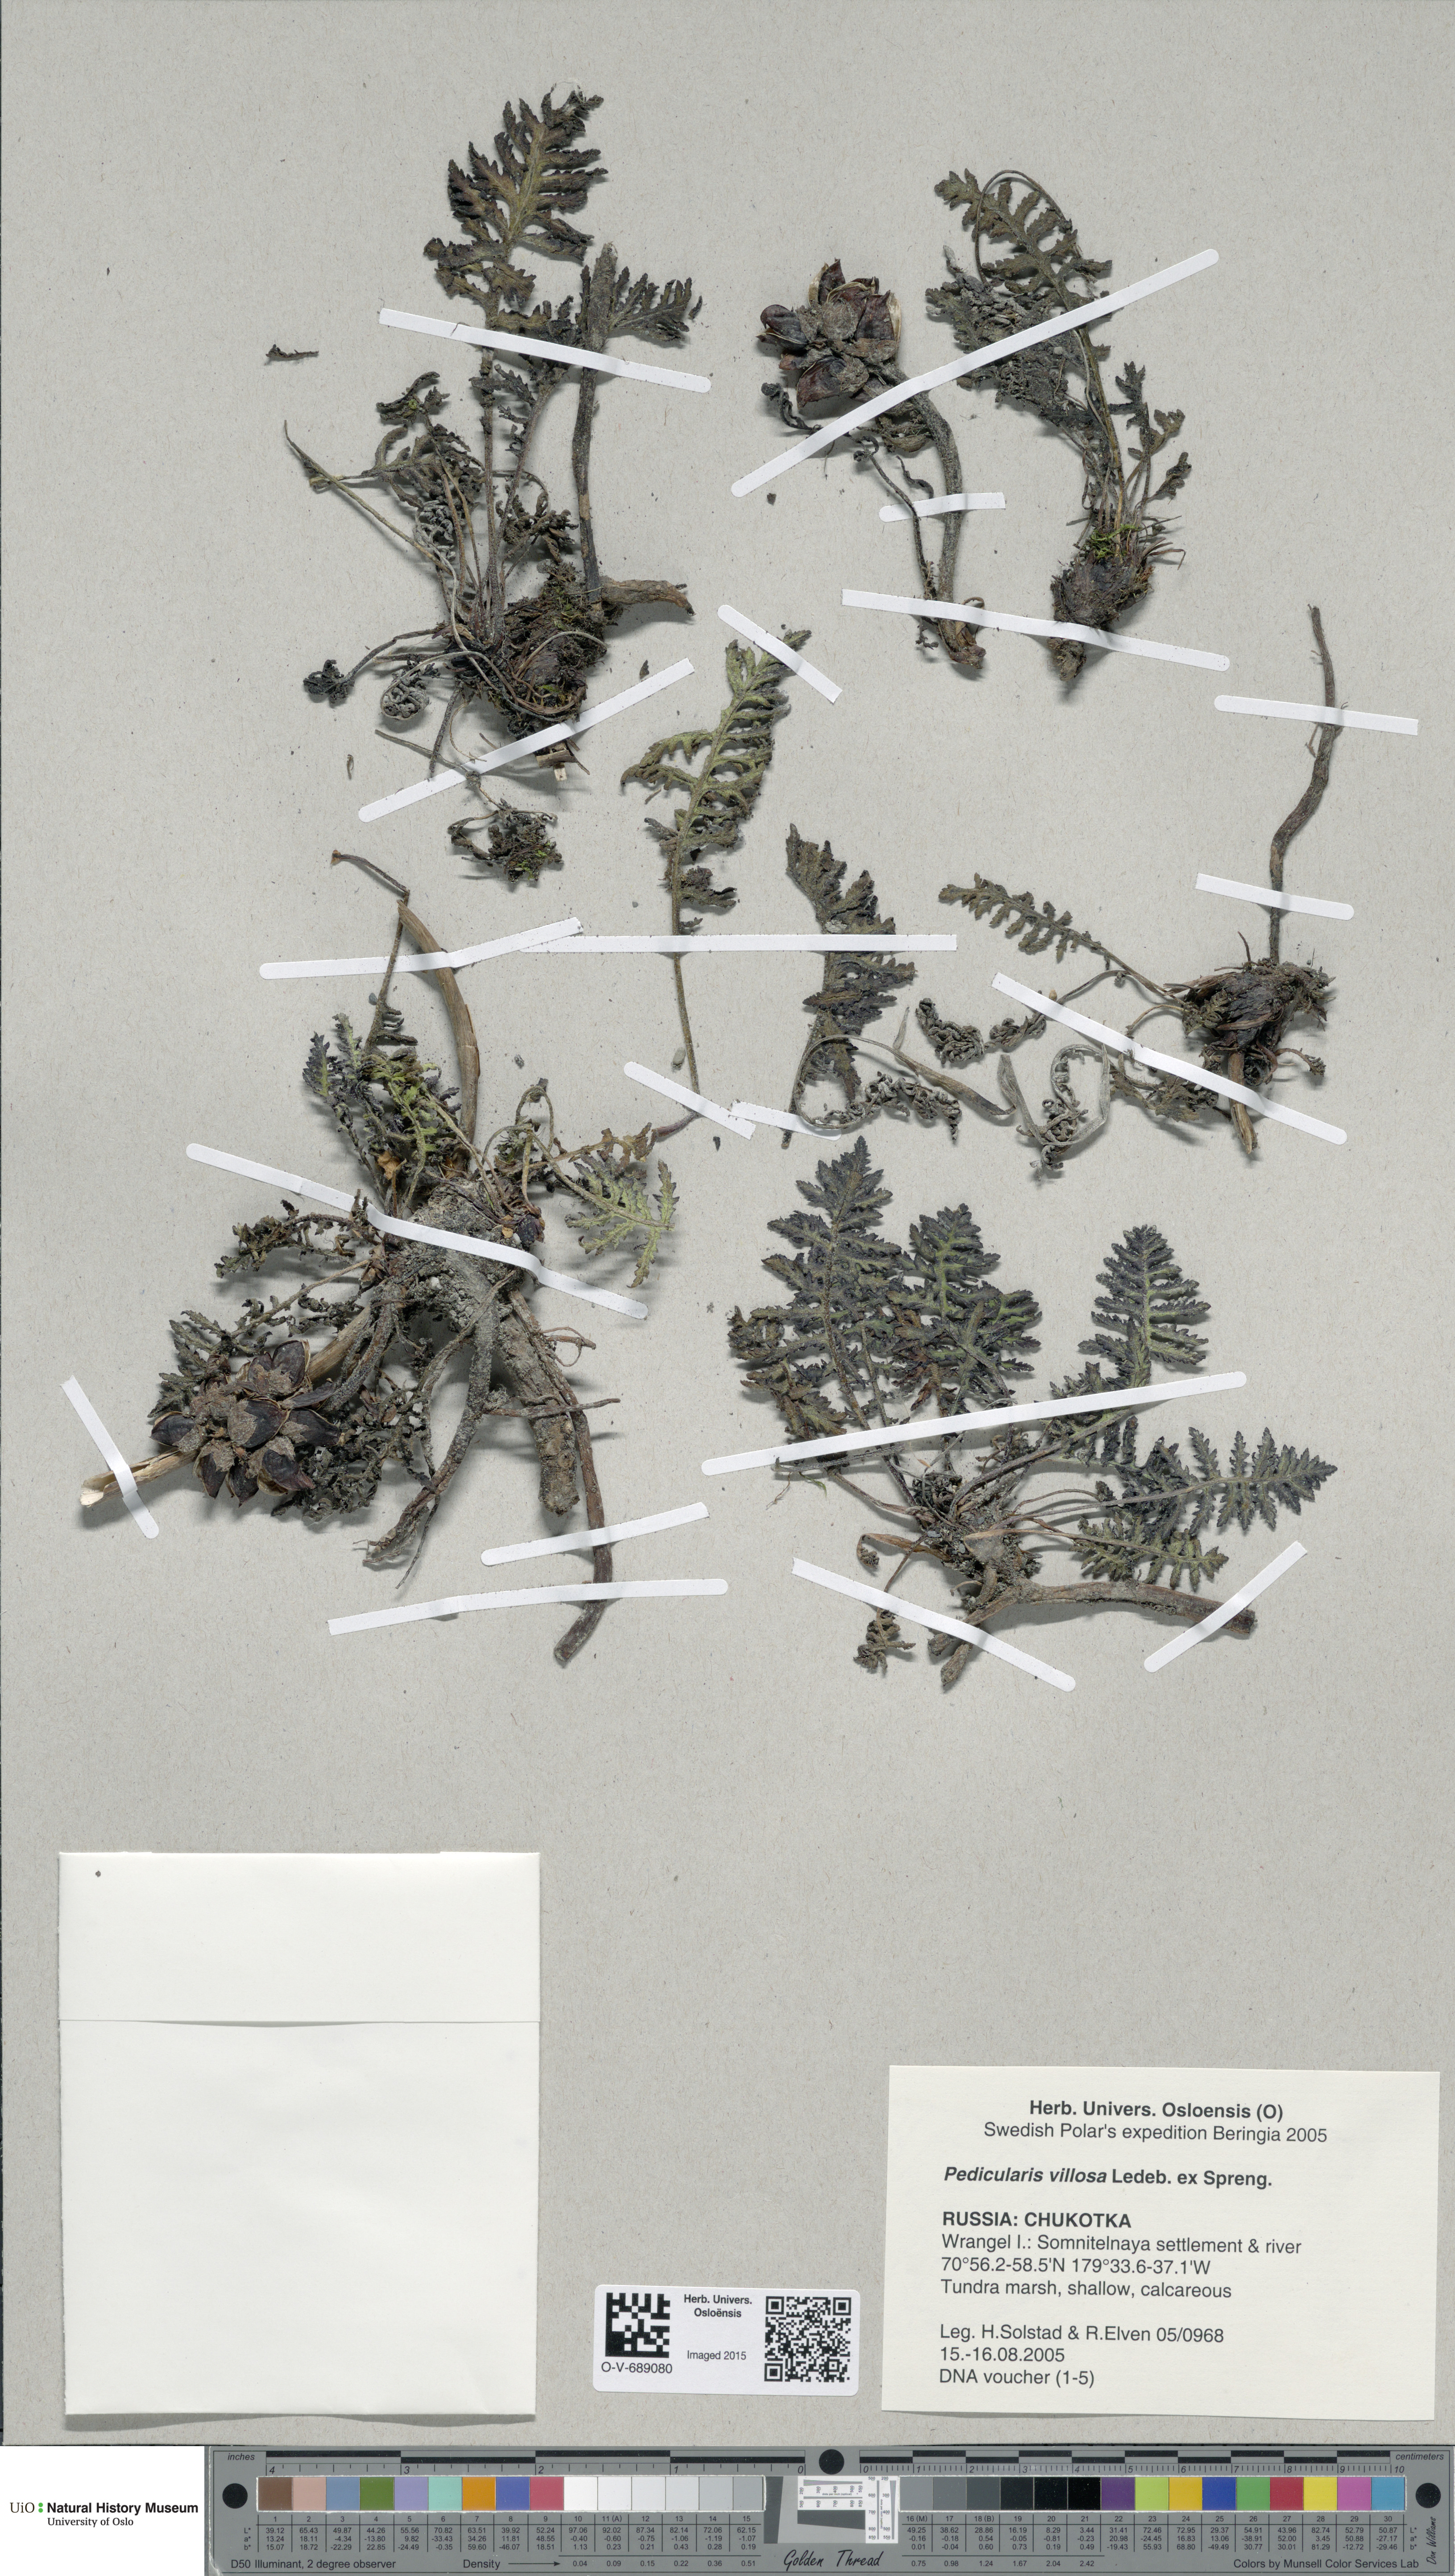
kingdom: Plantae
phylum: Tracheophyta
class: Magnoliopsida
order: Lamiales
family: Orobanchaceae
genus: Pedicularis
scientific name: Pedicularis villosa
